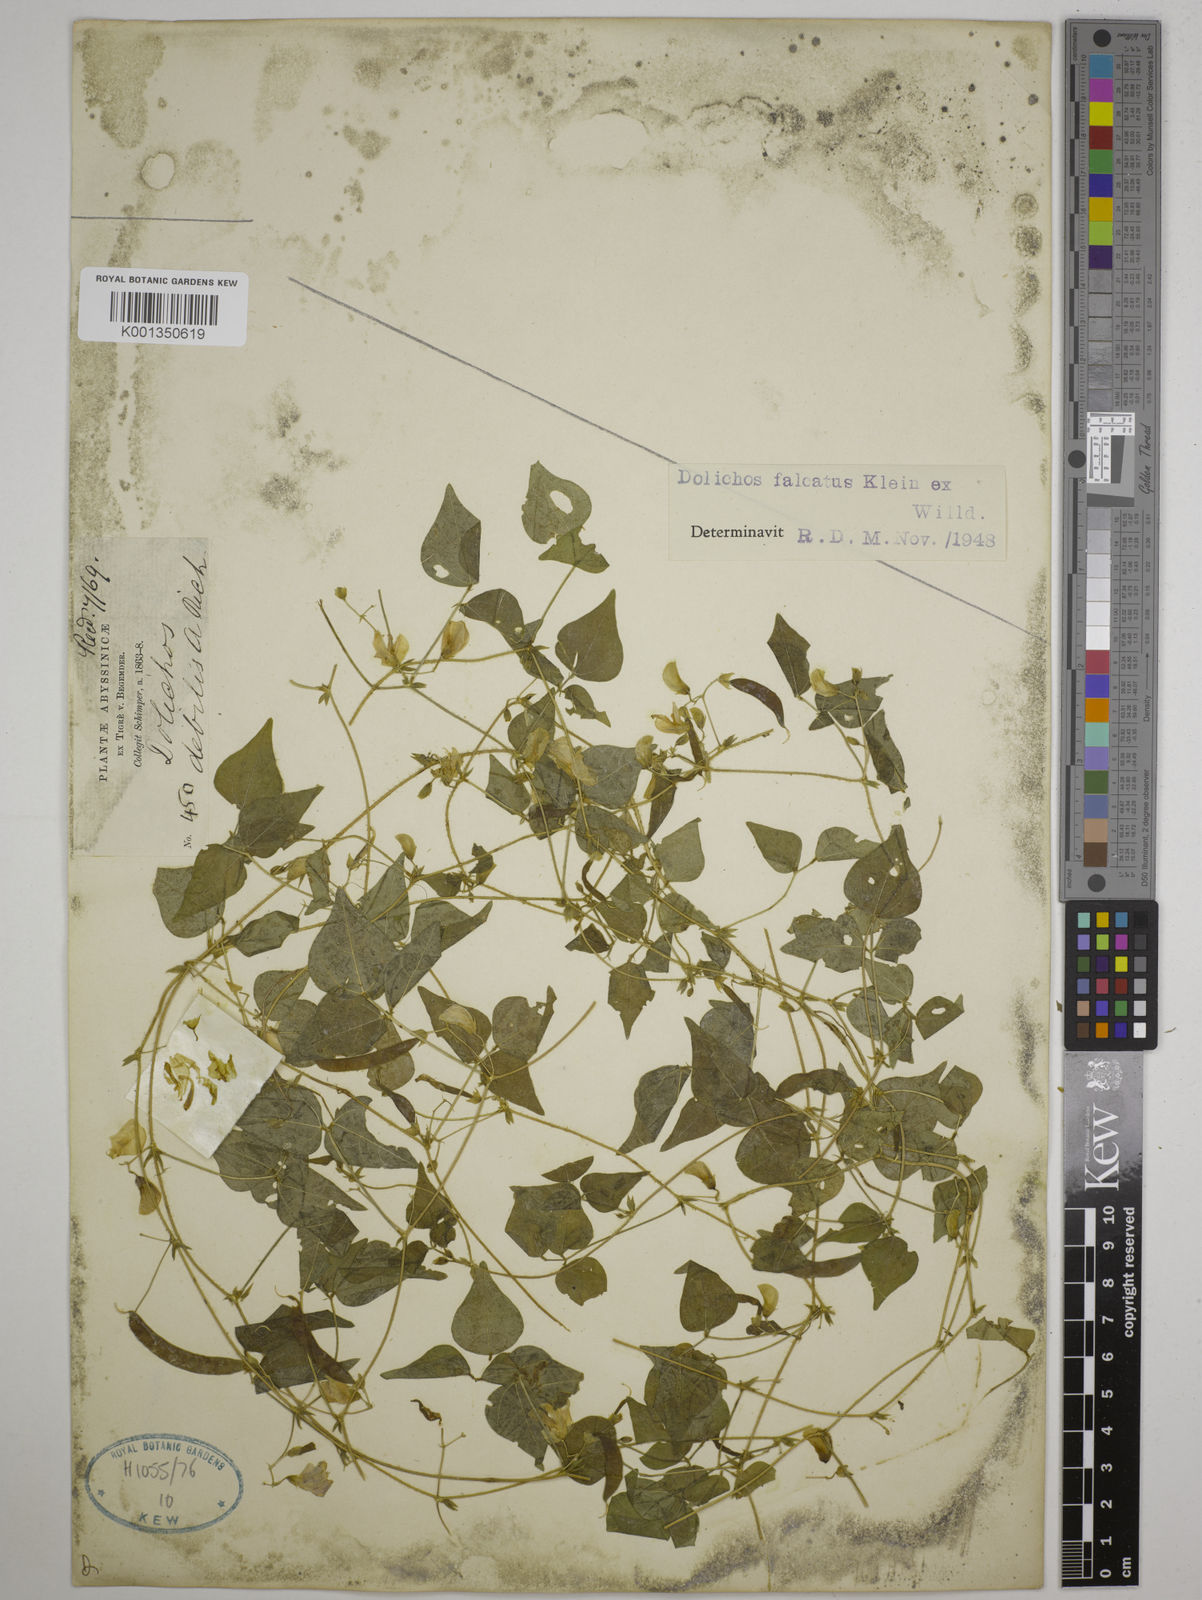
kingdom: Plantae
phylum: Tracheophyta
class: Magnoliopsida
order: Fabales
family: Fabaceae
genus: Dolichos
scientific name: Dolichos trilobus
